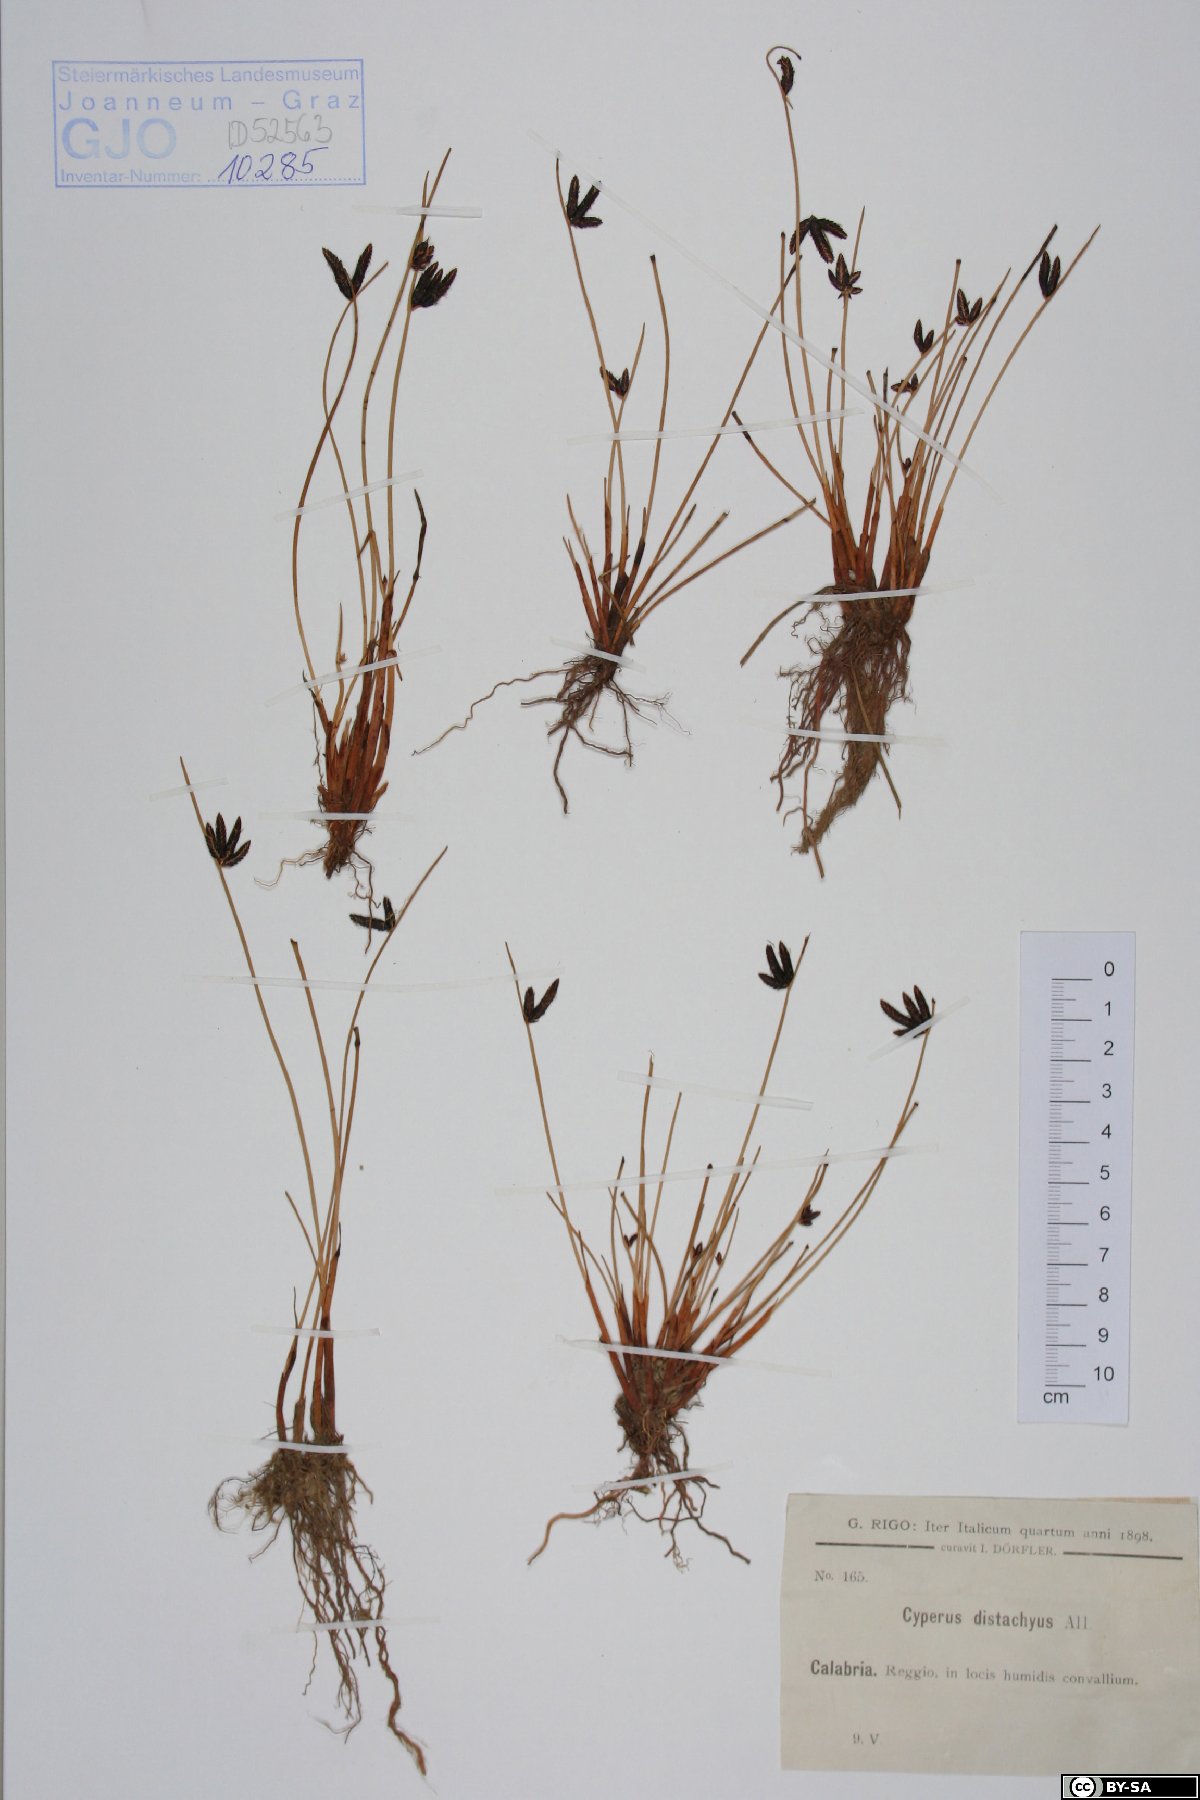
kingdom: Plantae
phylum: Tracheophyta
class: Liliopsida
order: Poales
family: Cyperaceae
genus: Cyperus
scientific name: Cyperus laevigatus
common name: Smooth flat sedge
